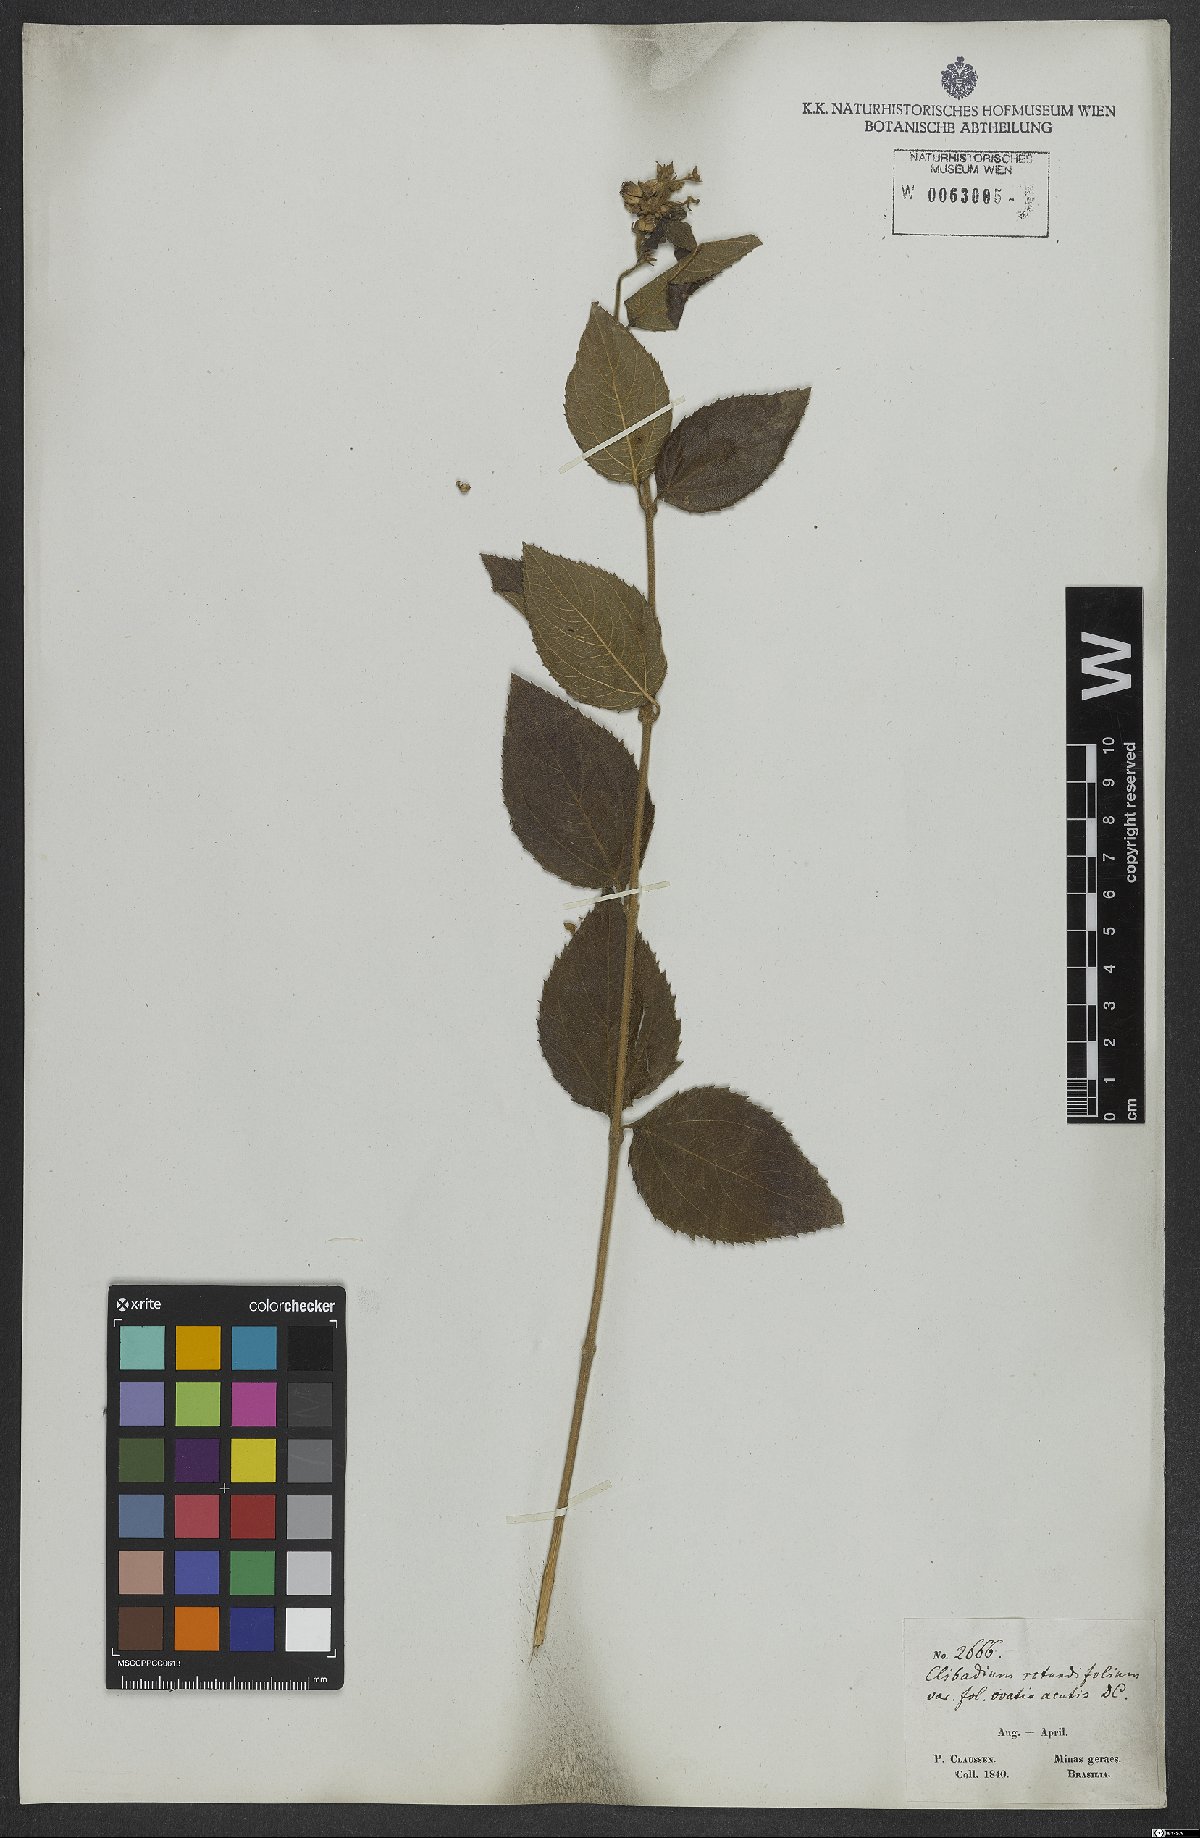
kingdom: Plantae
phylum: Tracheophyta
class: Magnoliopsida
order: Asterales
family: Asteraceae
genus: Clibadium
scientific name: Clibadium armanii
